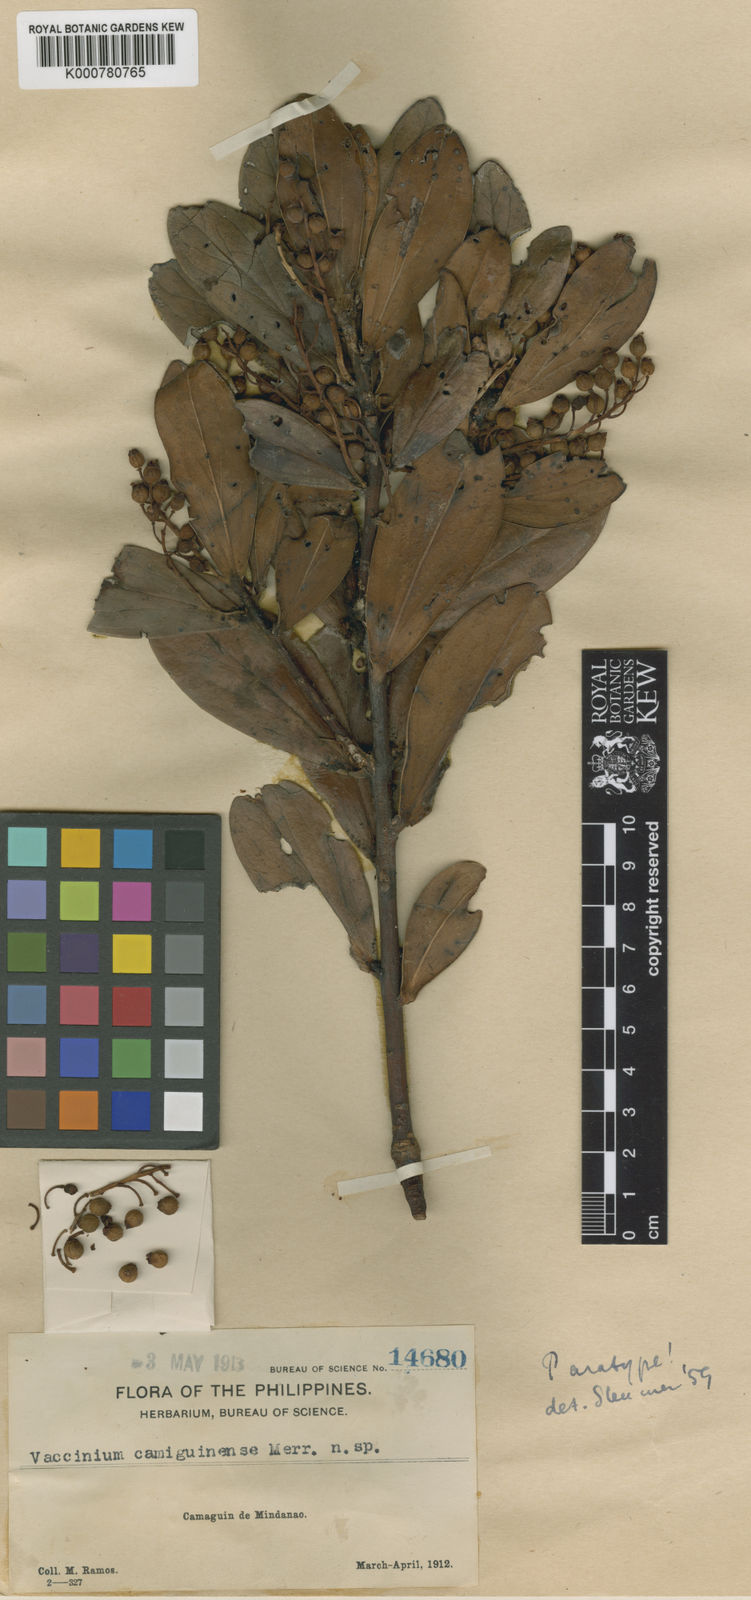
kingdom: Plantae
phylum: Tracheophyta
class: Magnoliopsida
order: Ericales
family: Ericaceae
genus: Vaccinium
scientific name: Vaccinium camiguinense
